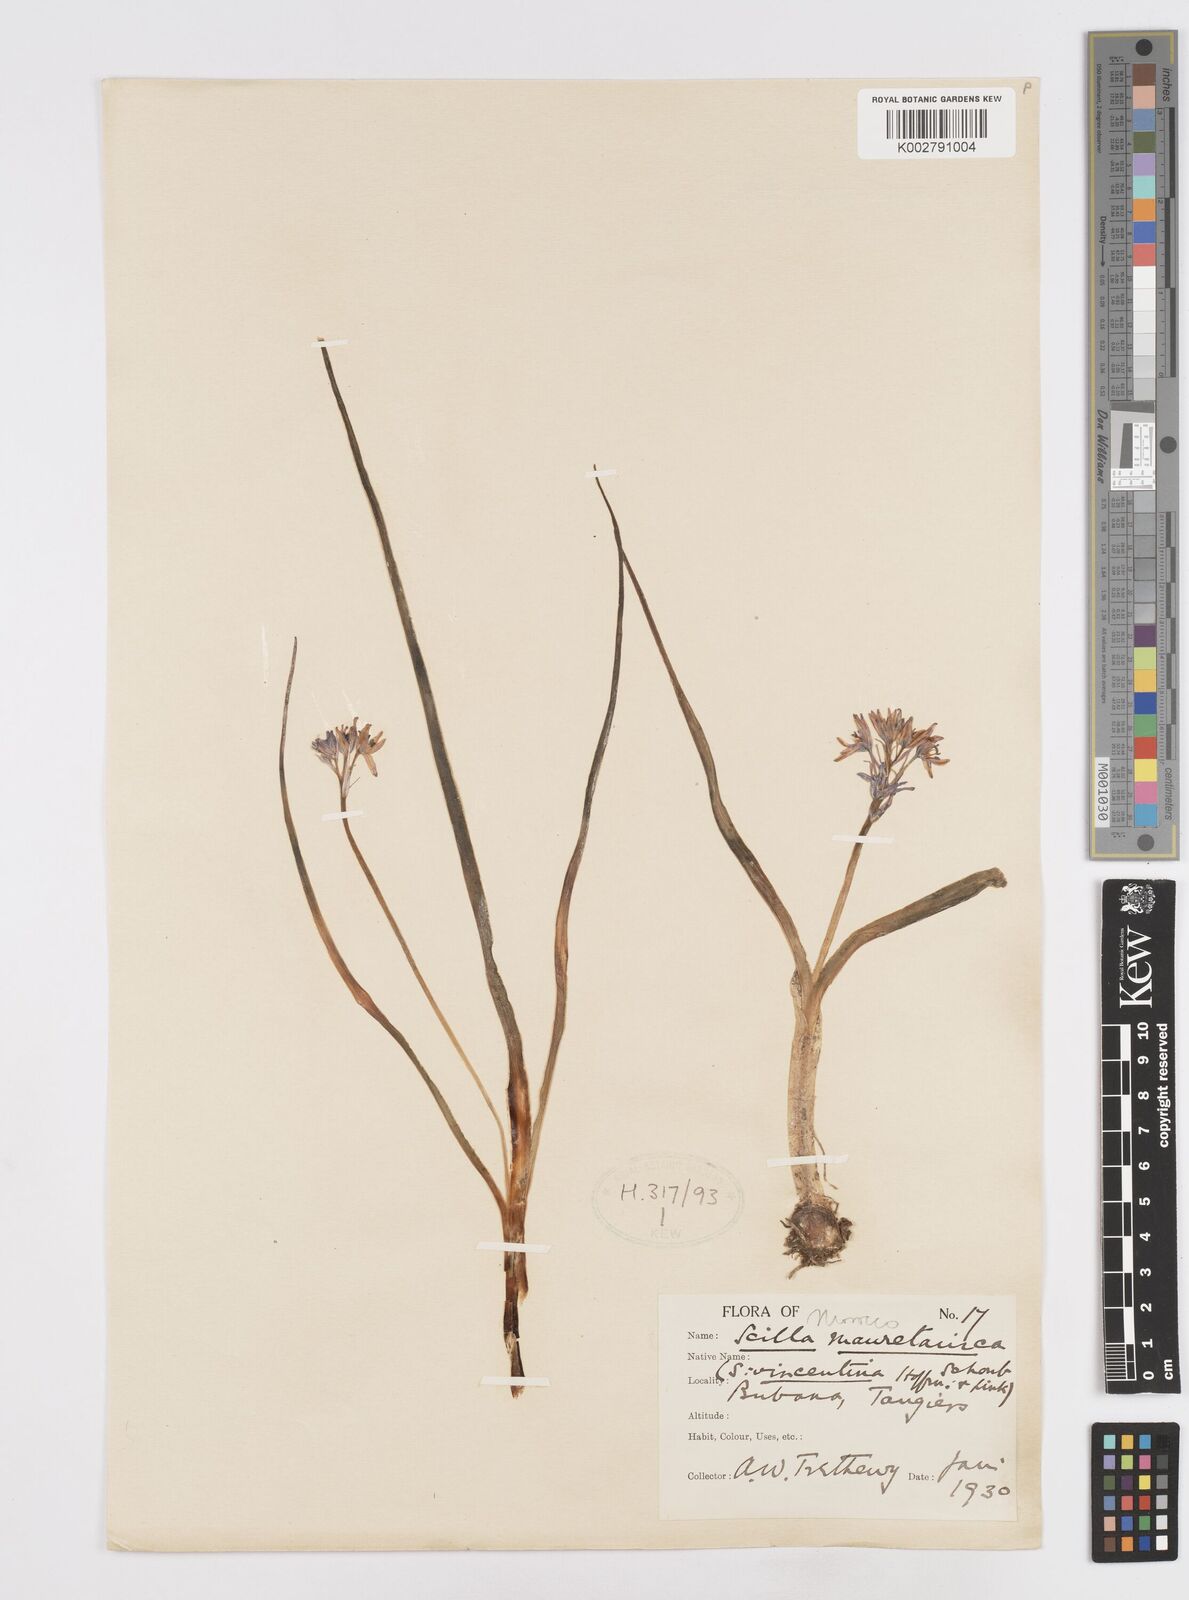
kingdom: Plantae
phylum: Tracheophyta
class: Liliopsida
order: Asparagales
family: Asparagaceae
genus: Hyacinthoides
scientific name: Hyacinthoides mauritanica
